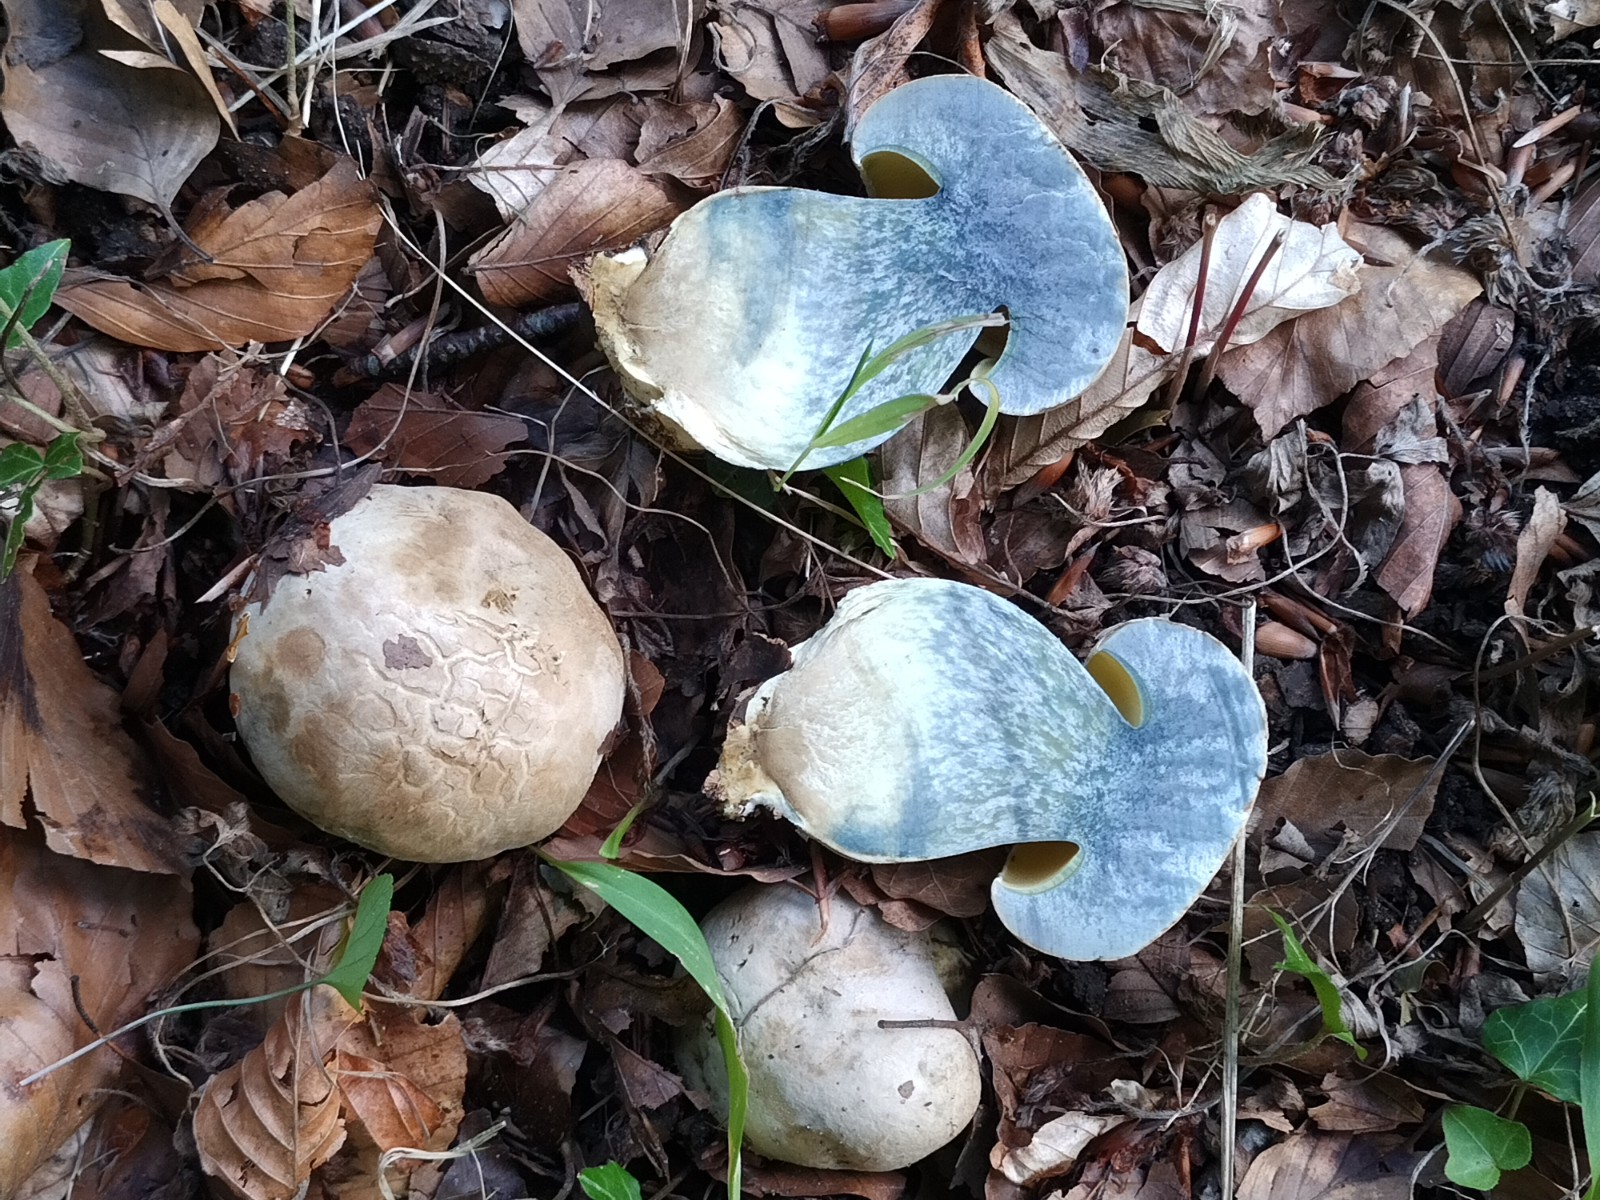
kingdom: Fungi
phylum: Basidiomycota
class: Agaricomycetes
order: Boletales
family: Boletaceae
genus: Caloboletus
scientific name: Caloboletus radicans
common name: rod-rørhat
